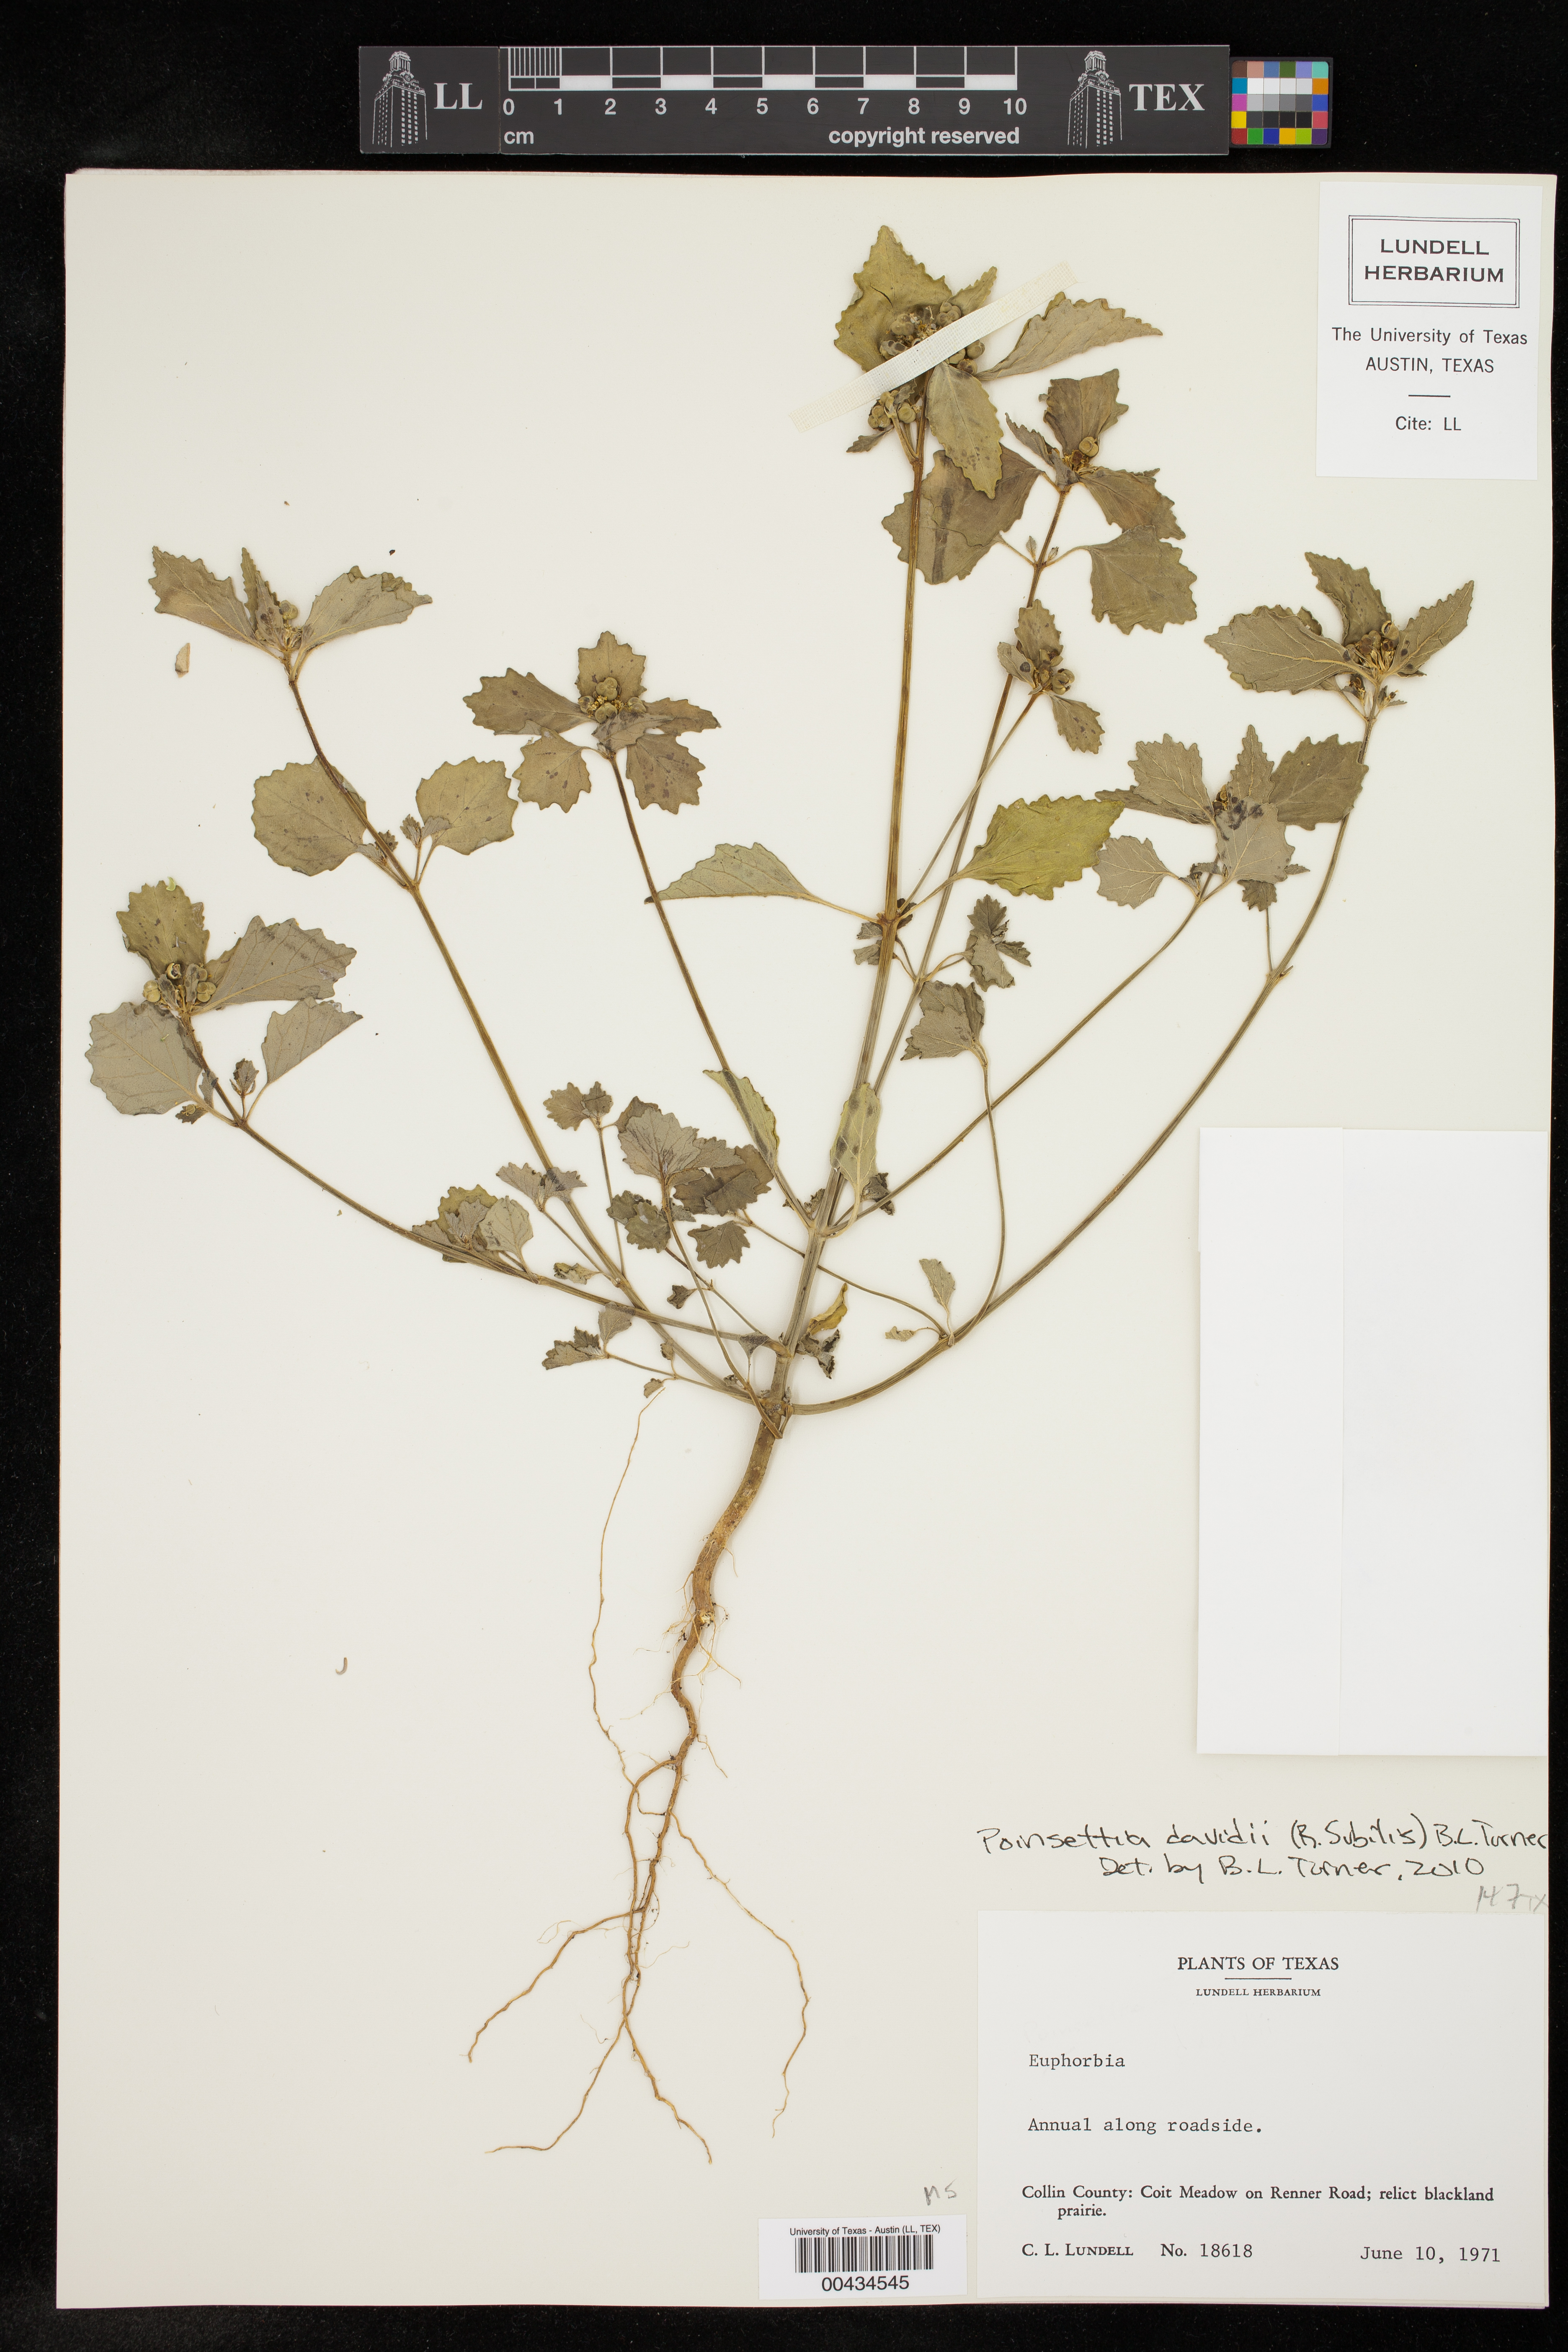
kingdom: Plantae
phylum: Tracheophyta
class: Magnoliopsida
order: Malpighiales
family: Euphorbiaceae
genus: Euphorbia
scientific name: Euphorbia davidii
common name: David's spurge
